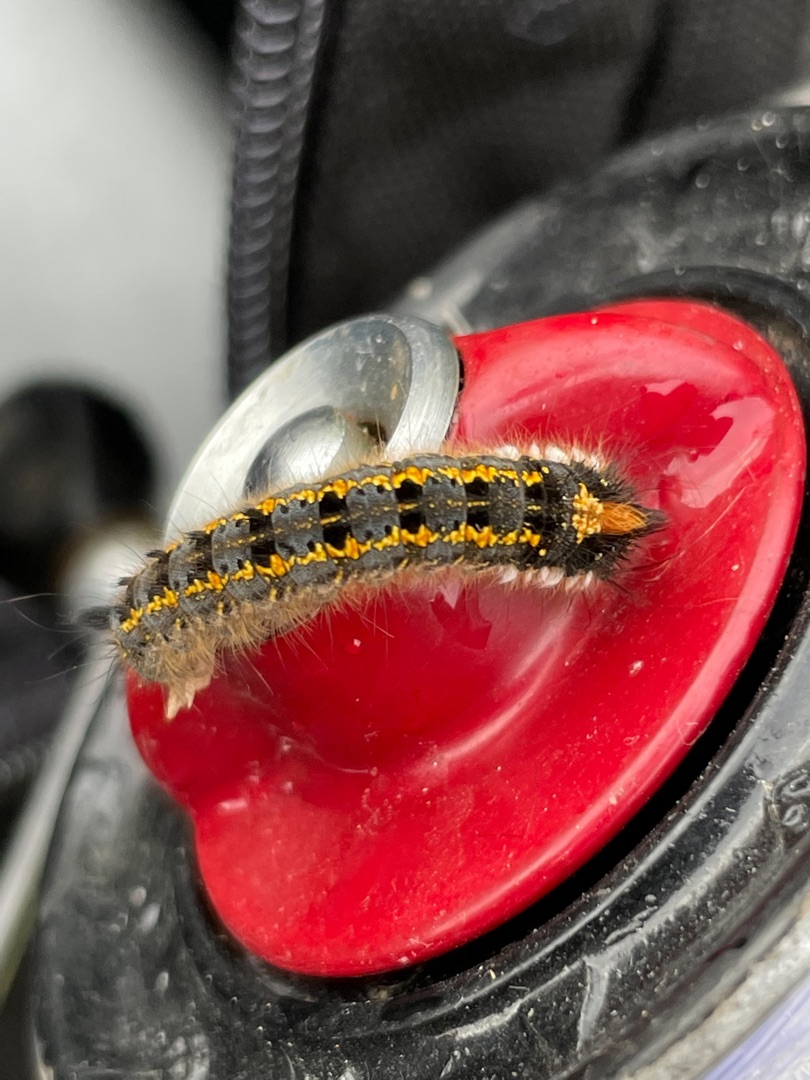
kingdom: Animalia
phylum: Arthropoda
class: Insecta
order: Lepidoptera
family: Lasiocampidae
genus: Euthrix
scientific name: Euthrix potatoria
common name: Græsspinder
